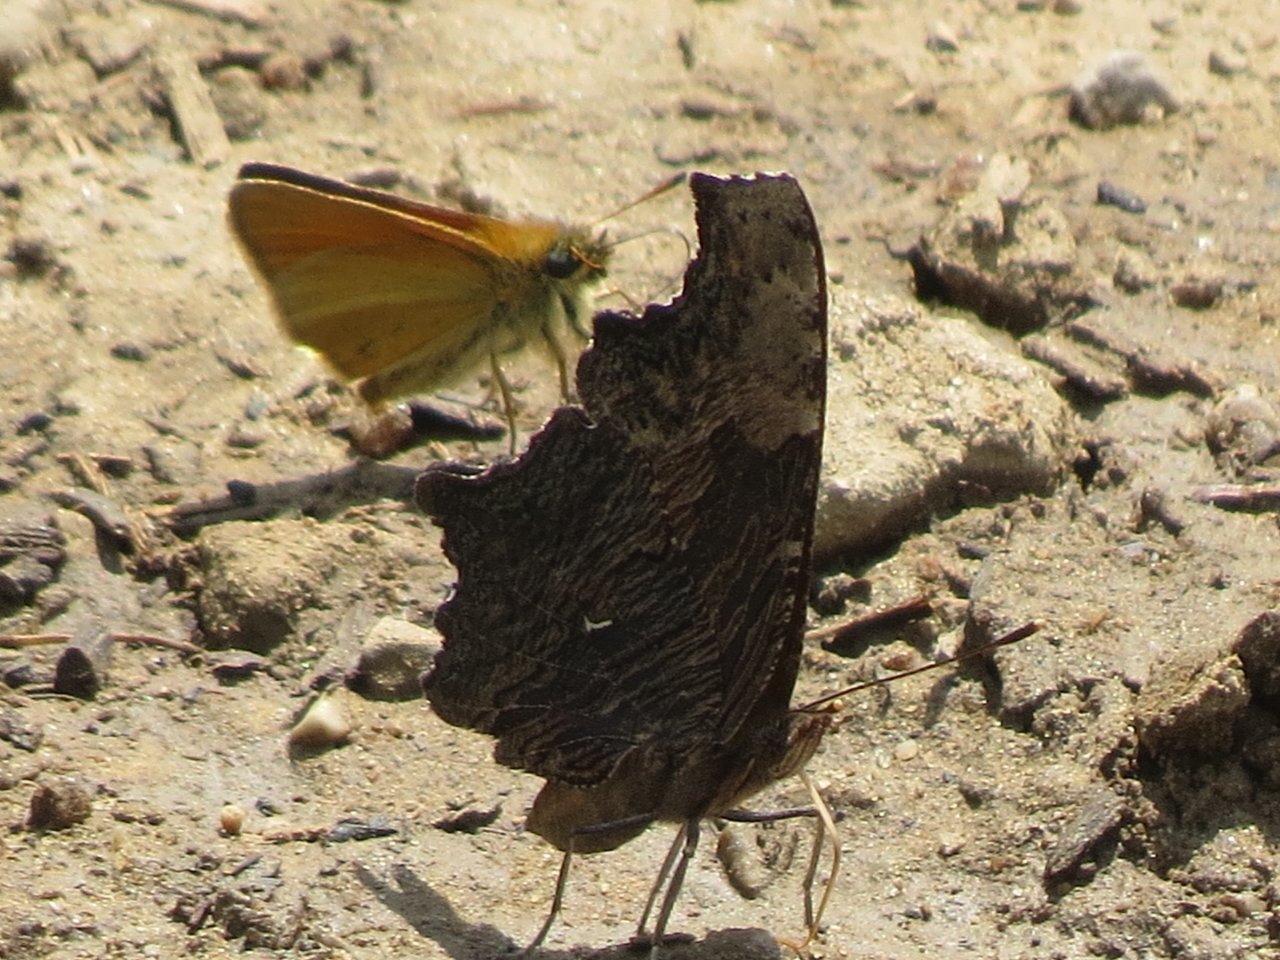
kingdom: Animalia
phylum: Arthropoda
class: Insecta
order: Lepidoptera
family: Nymphalidae
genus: Polygonia
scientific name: Polygonia progne
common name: Gray Comma
